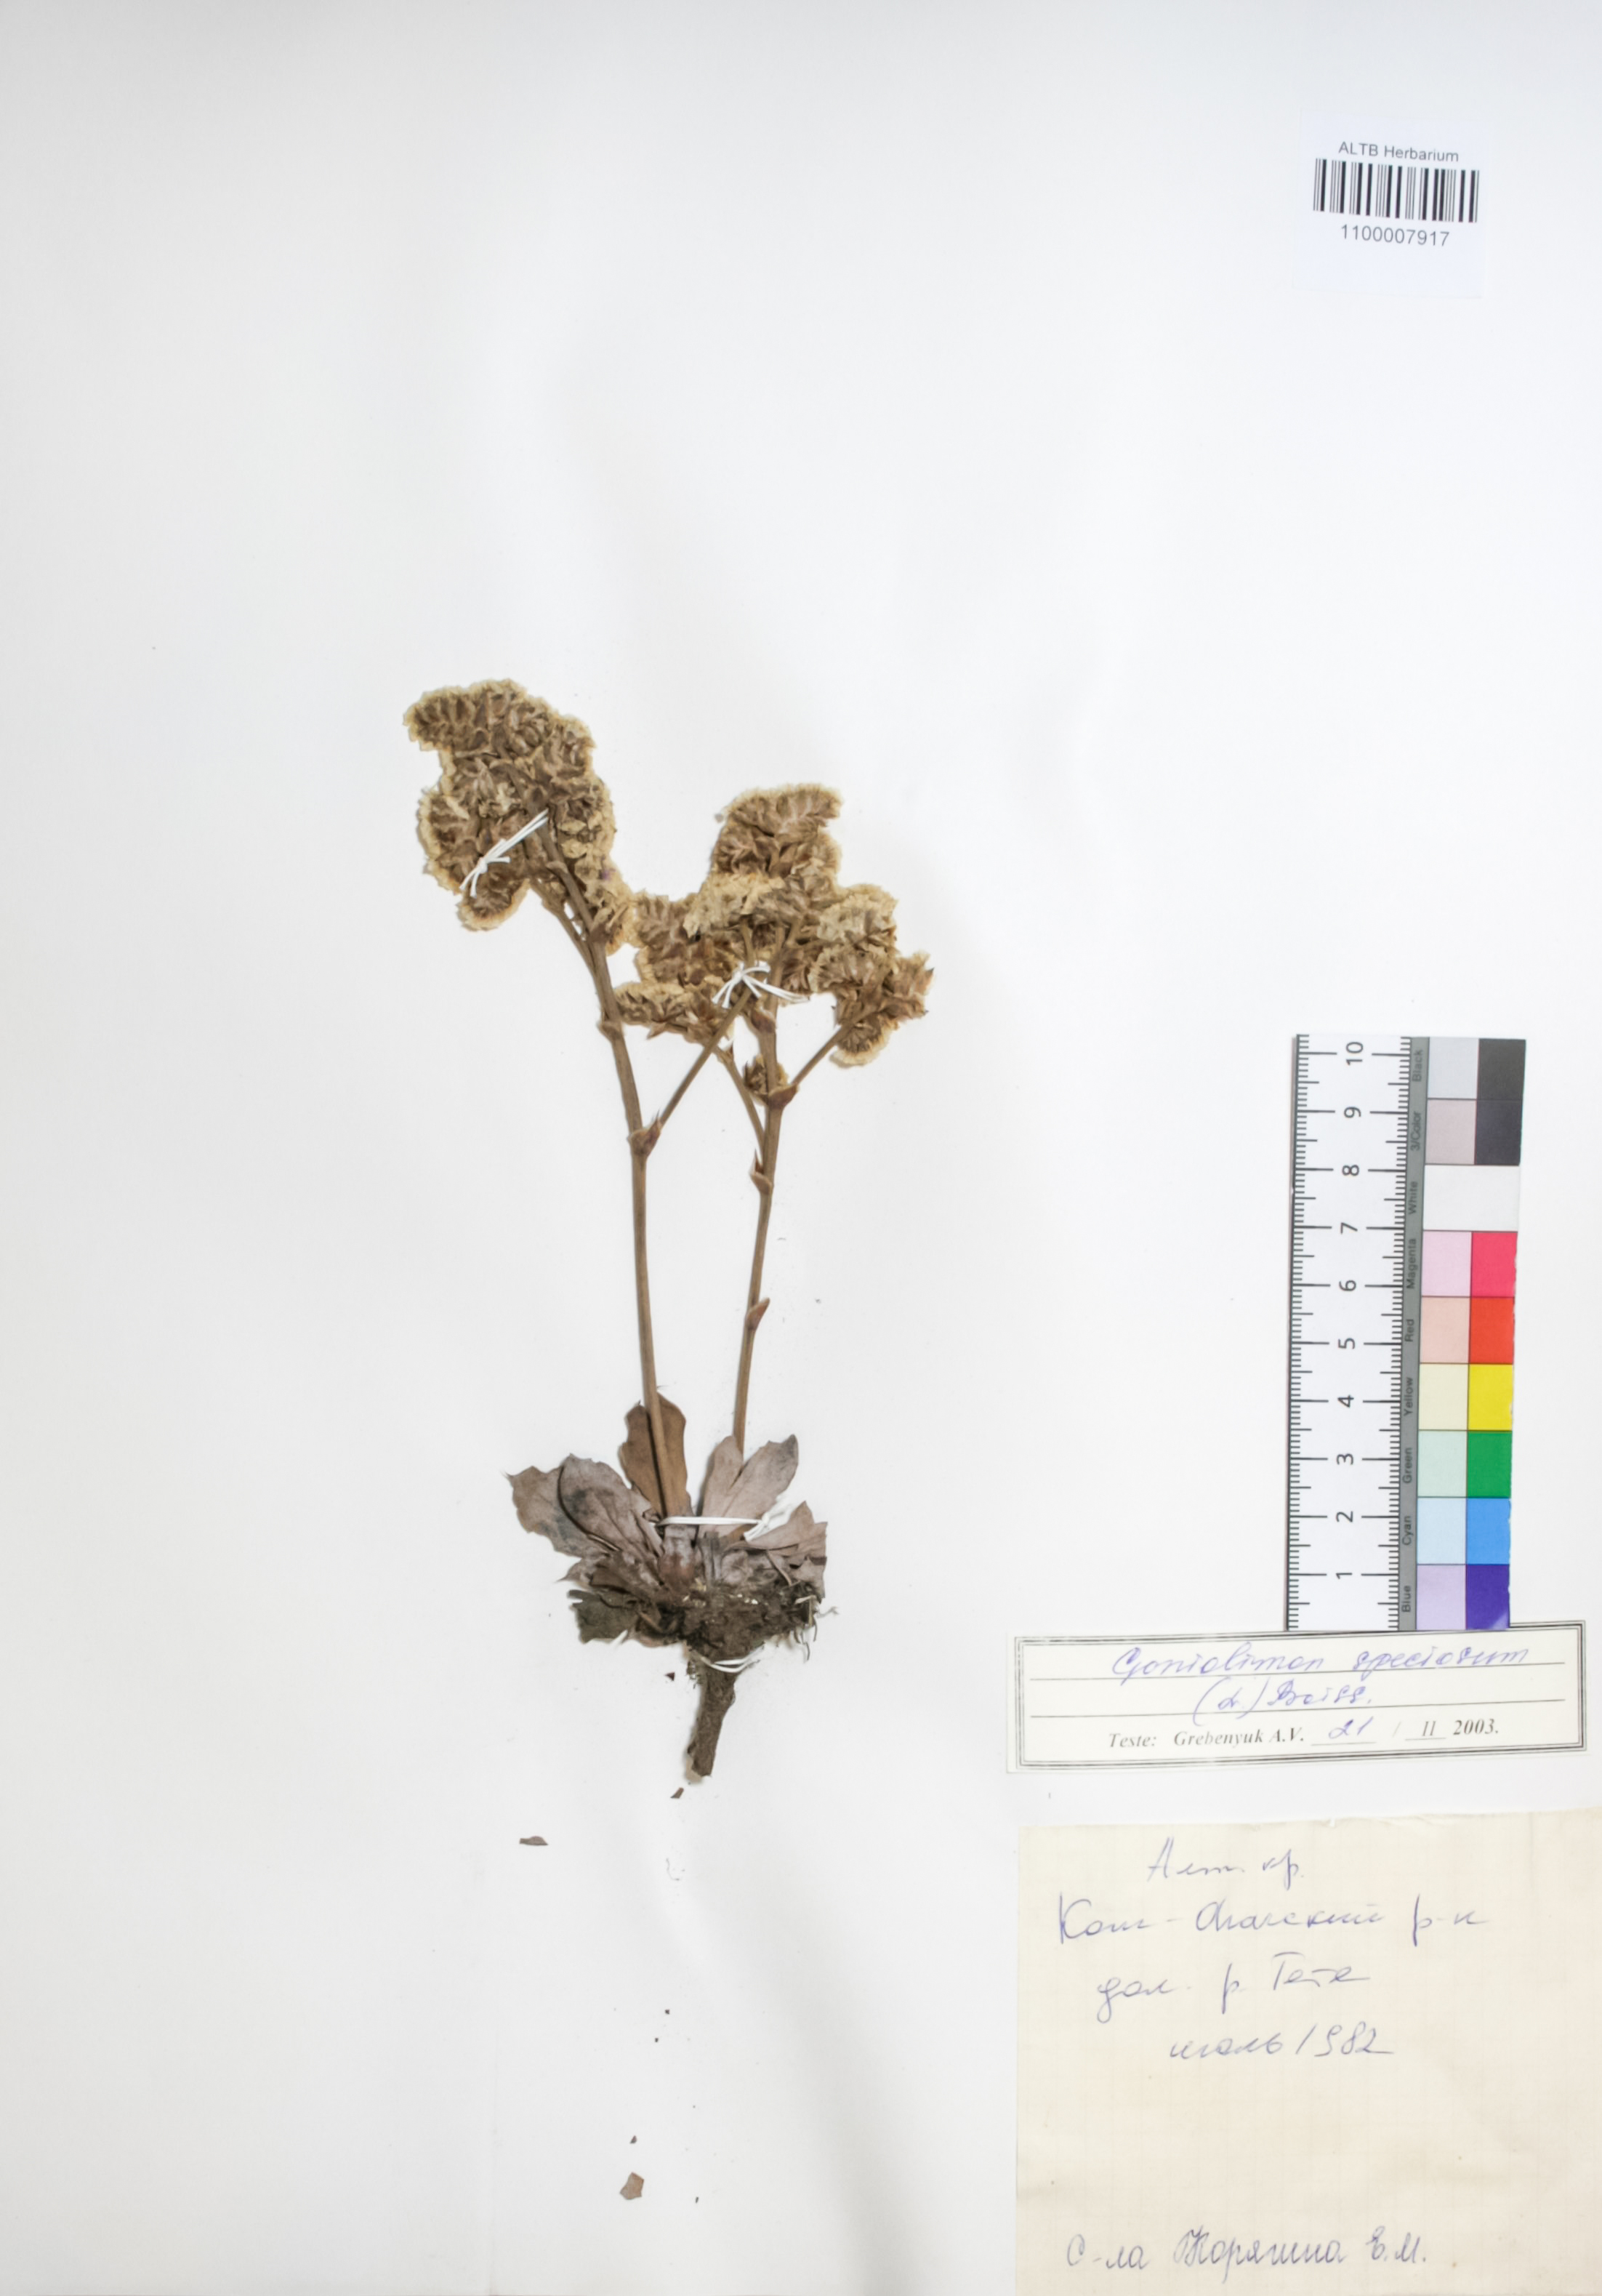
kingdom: Plantae
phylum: Tracheophyta
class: Magnoliopsida
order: Caryophyllales
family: Plumbaginaceae
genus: Goniolimon
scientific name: Goniolimon speciosum
